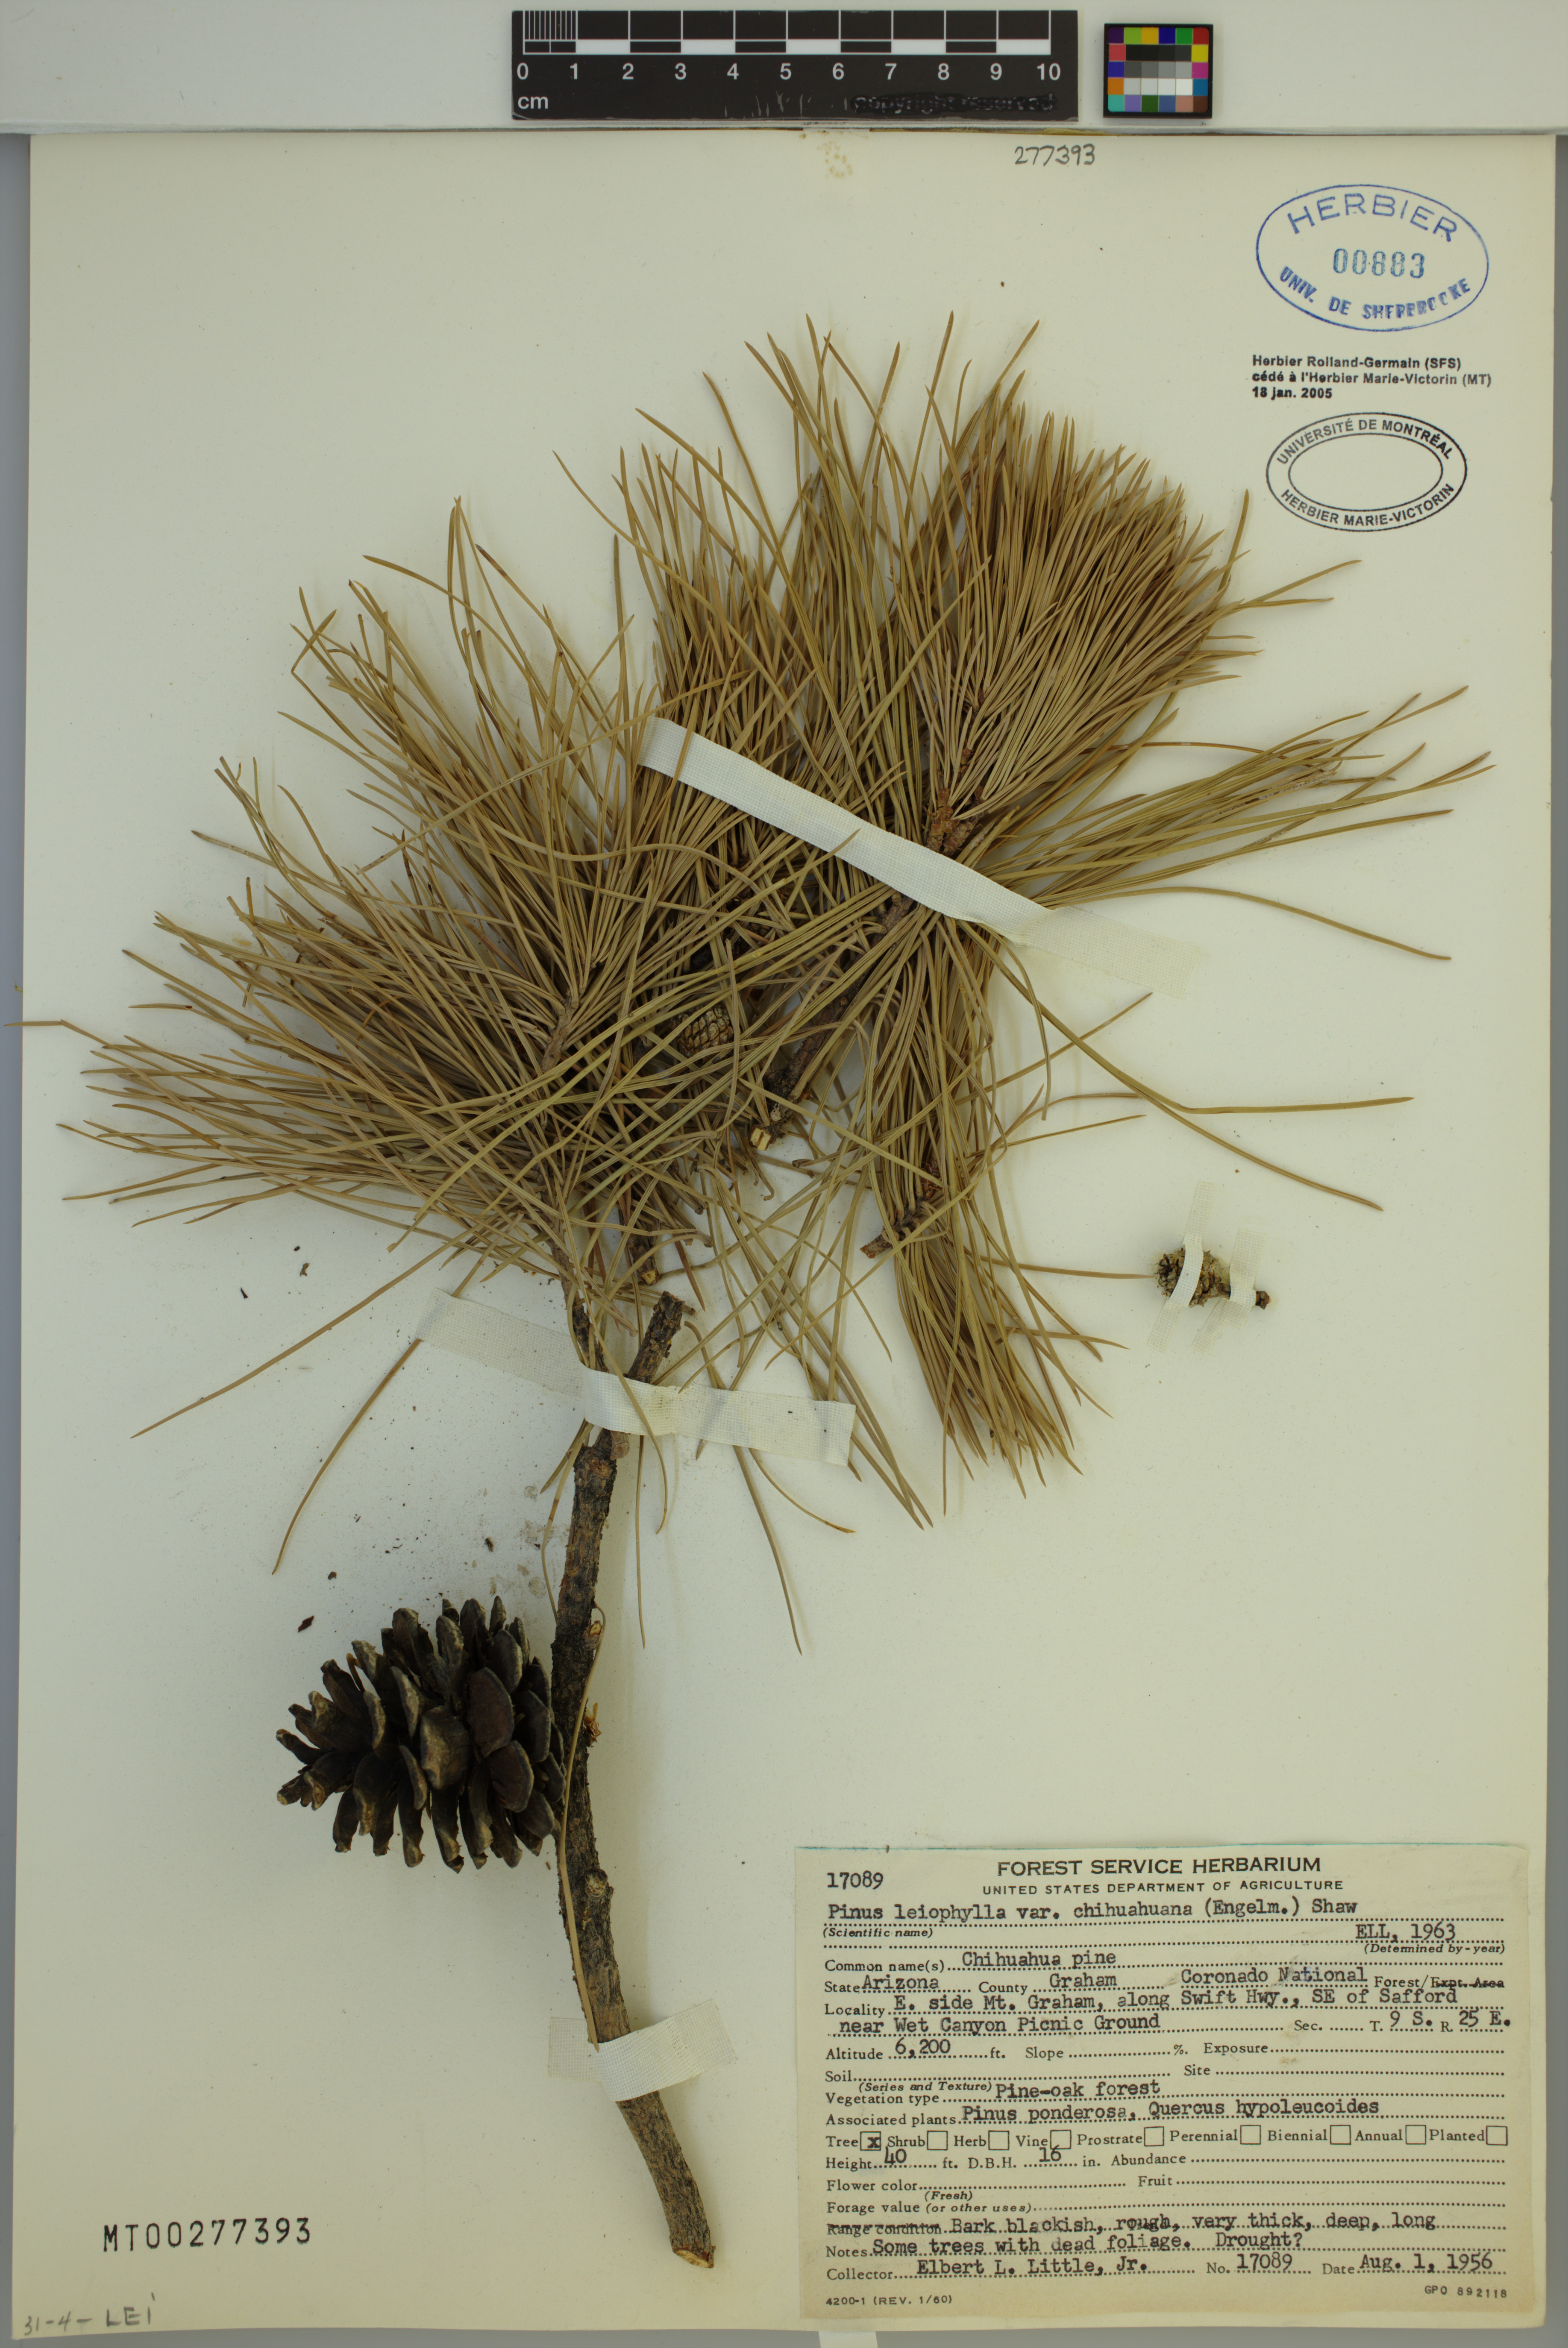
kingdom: Plantae
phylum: Tracheophyta
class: Pinopsida
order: Pinales
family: Pinaceae
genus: Pinus
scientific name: Pinus leiophylla
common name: Chihuahua pine
